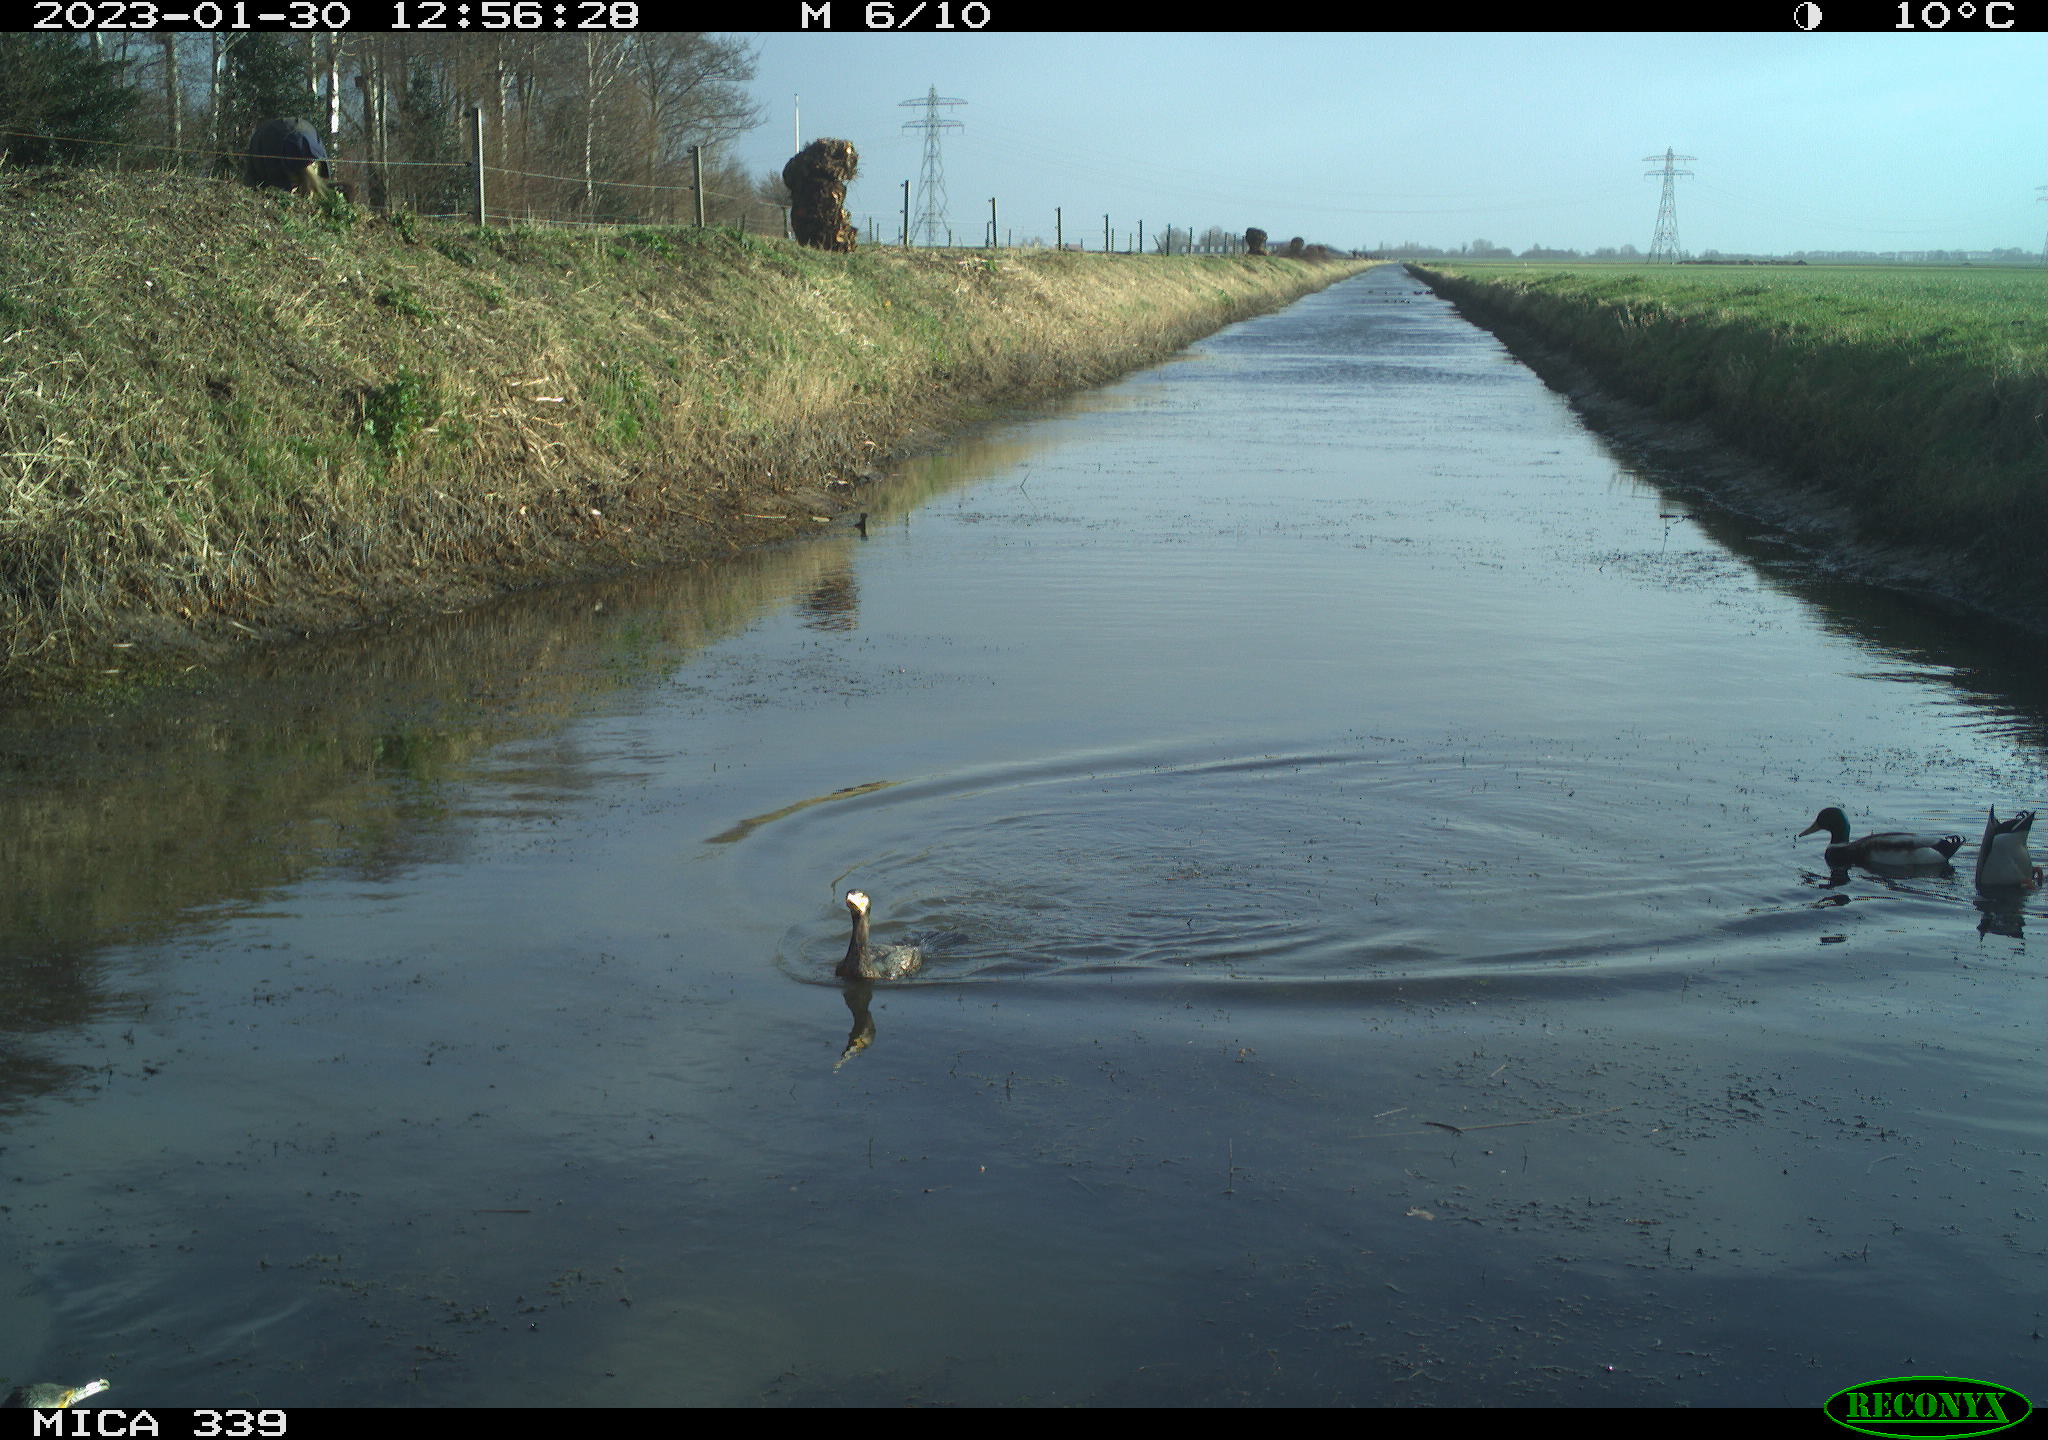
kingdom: Animalia
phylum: Chordata
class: Aves
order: Suliformes
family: Phalacrocoracidae
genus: Phalacrocorax
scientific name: Phalacrocorax carbo
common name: Great cormorant
